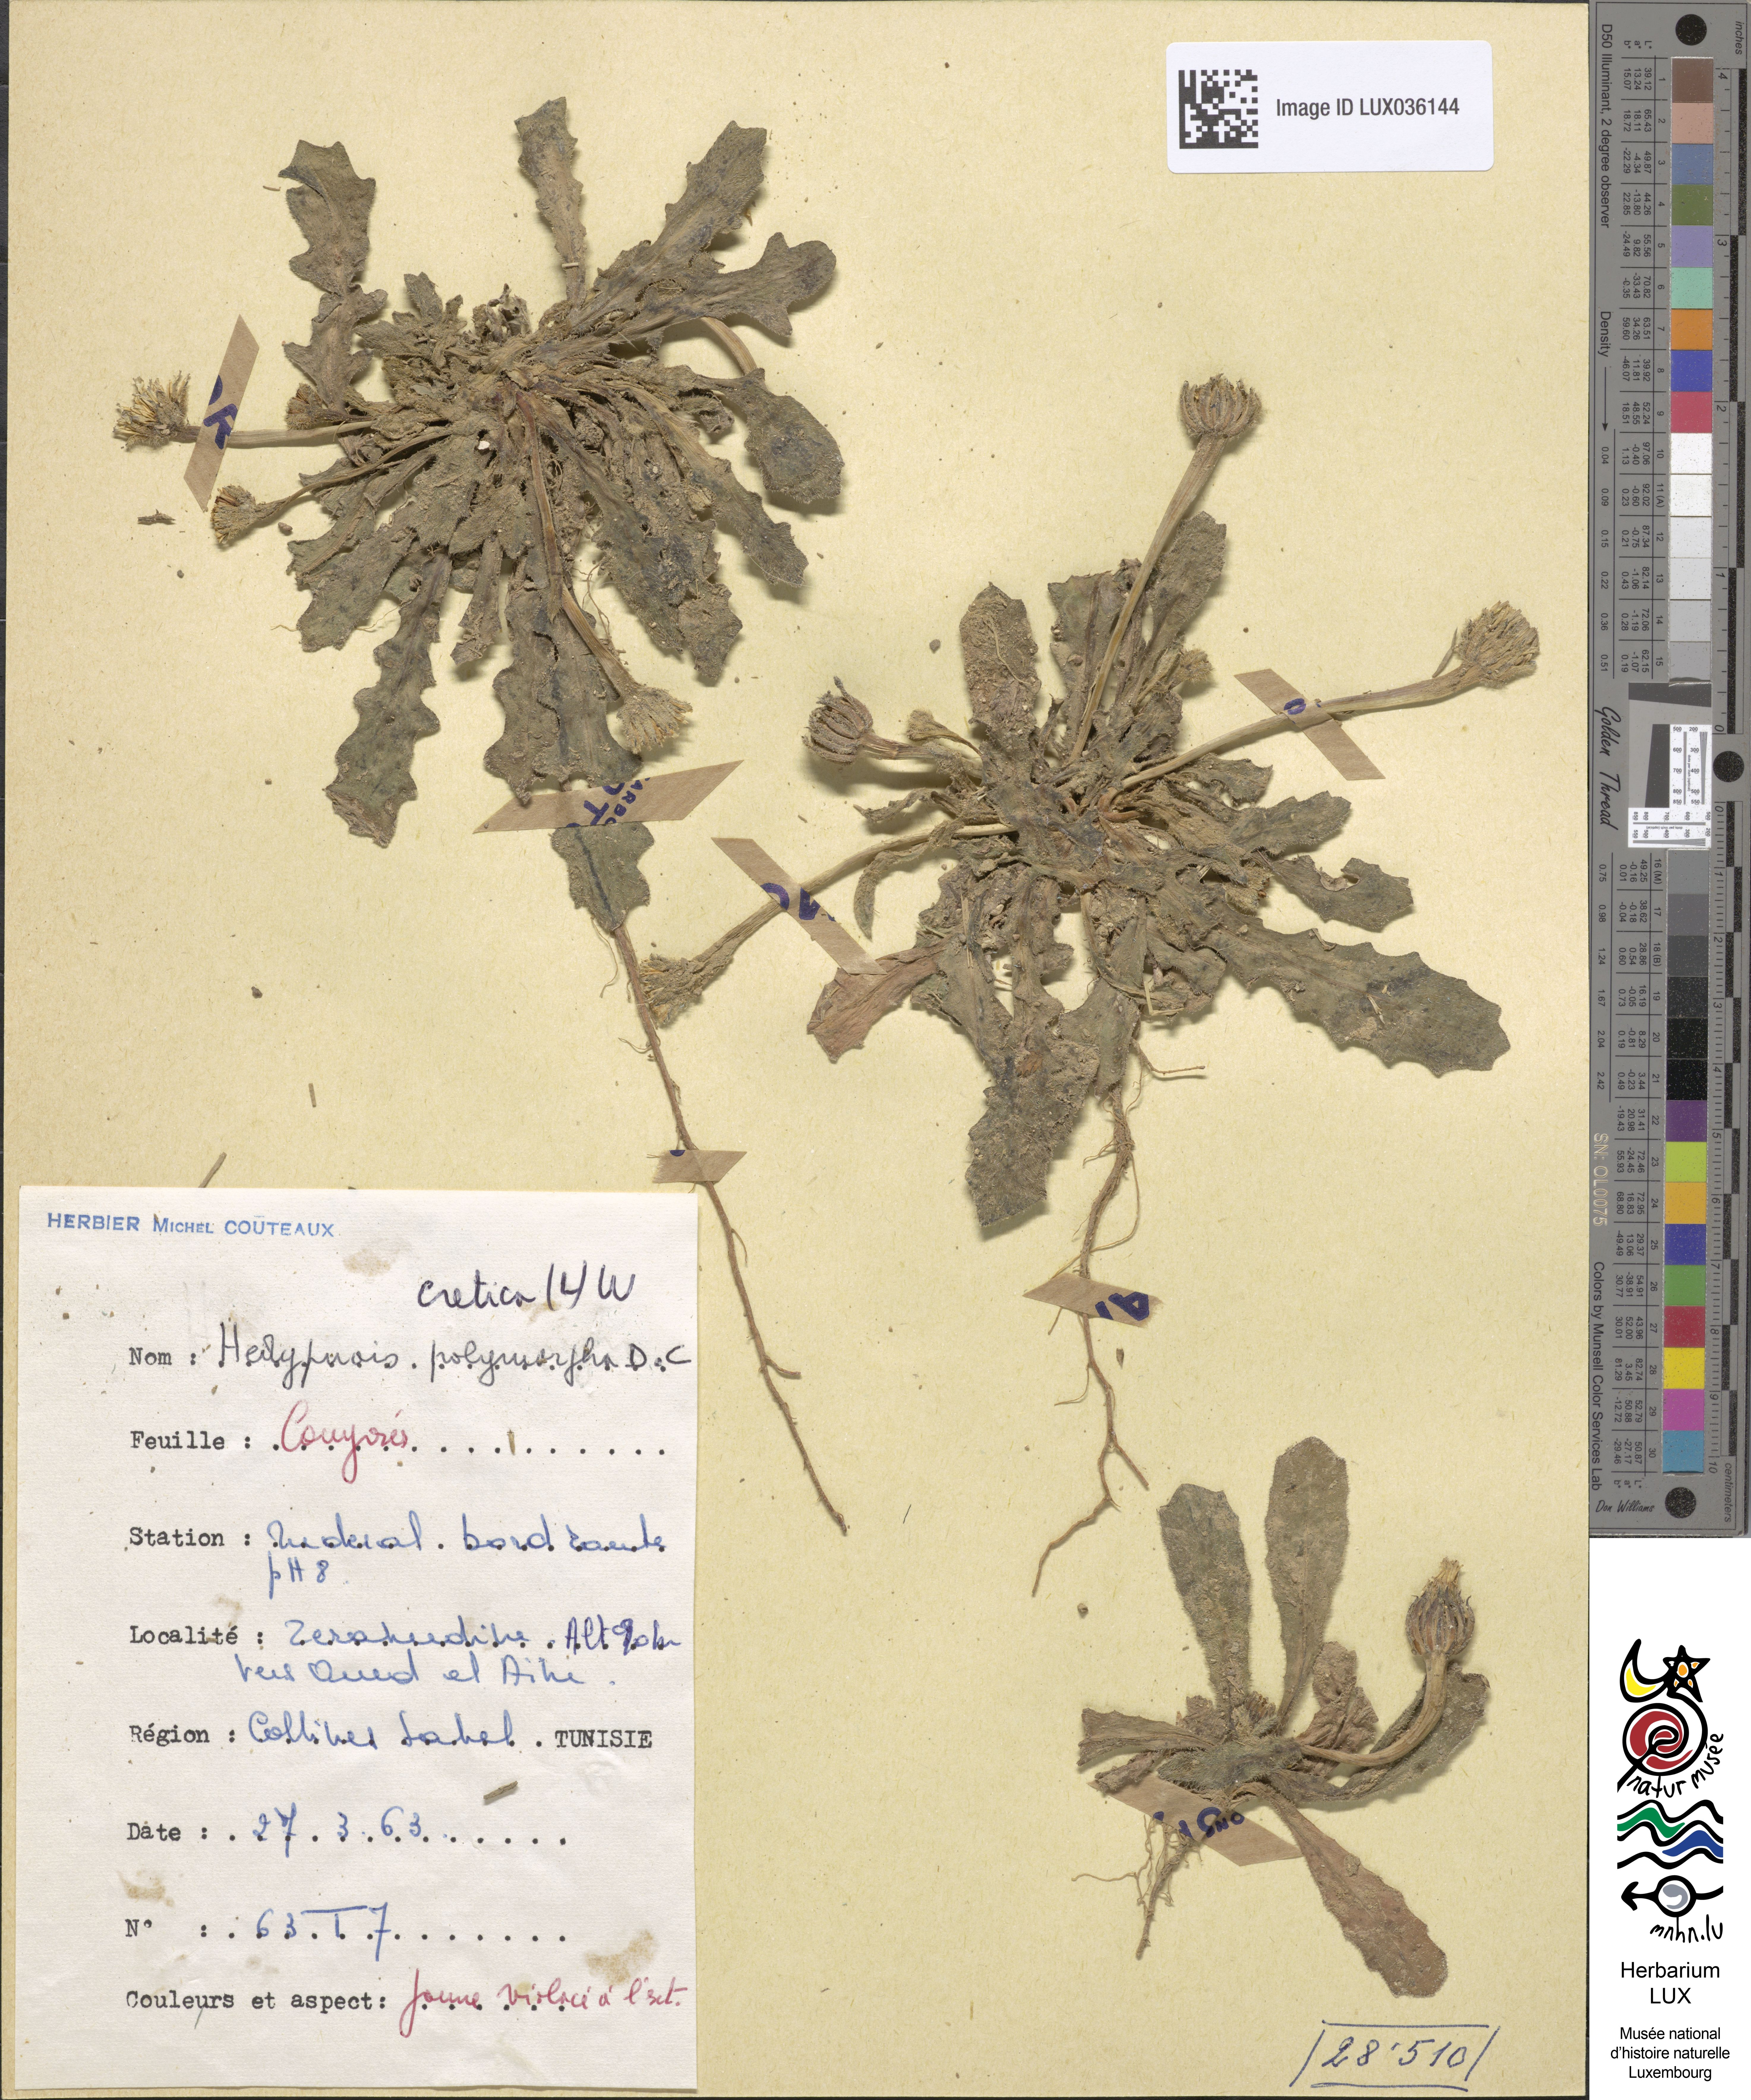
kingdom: Plantae
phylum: Tracheophyta
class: Magnoliopsida
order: Asterales
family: Asteraceae
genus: Hedypnois
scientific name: Hedypnois cretica
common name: Scaly hawkbit
